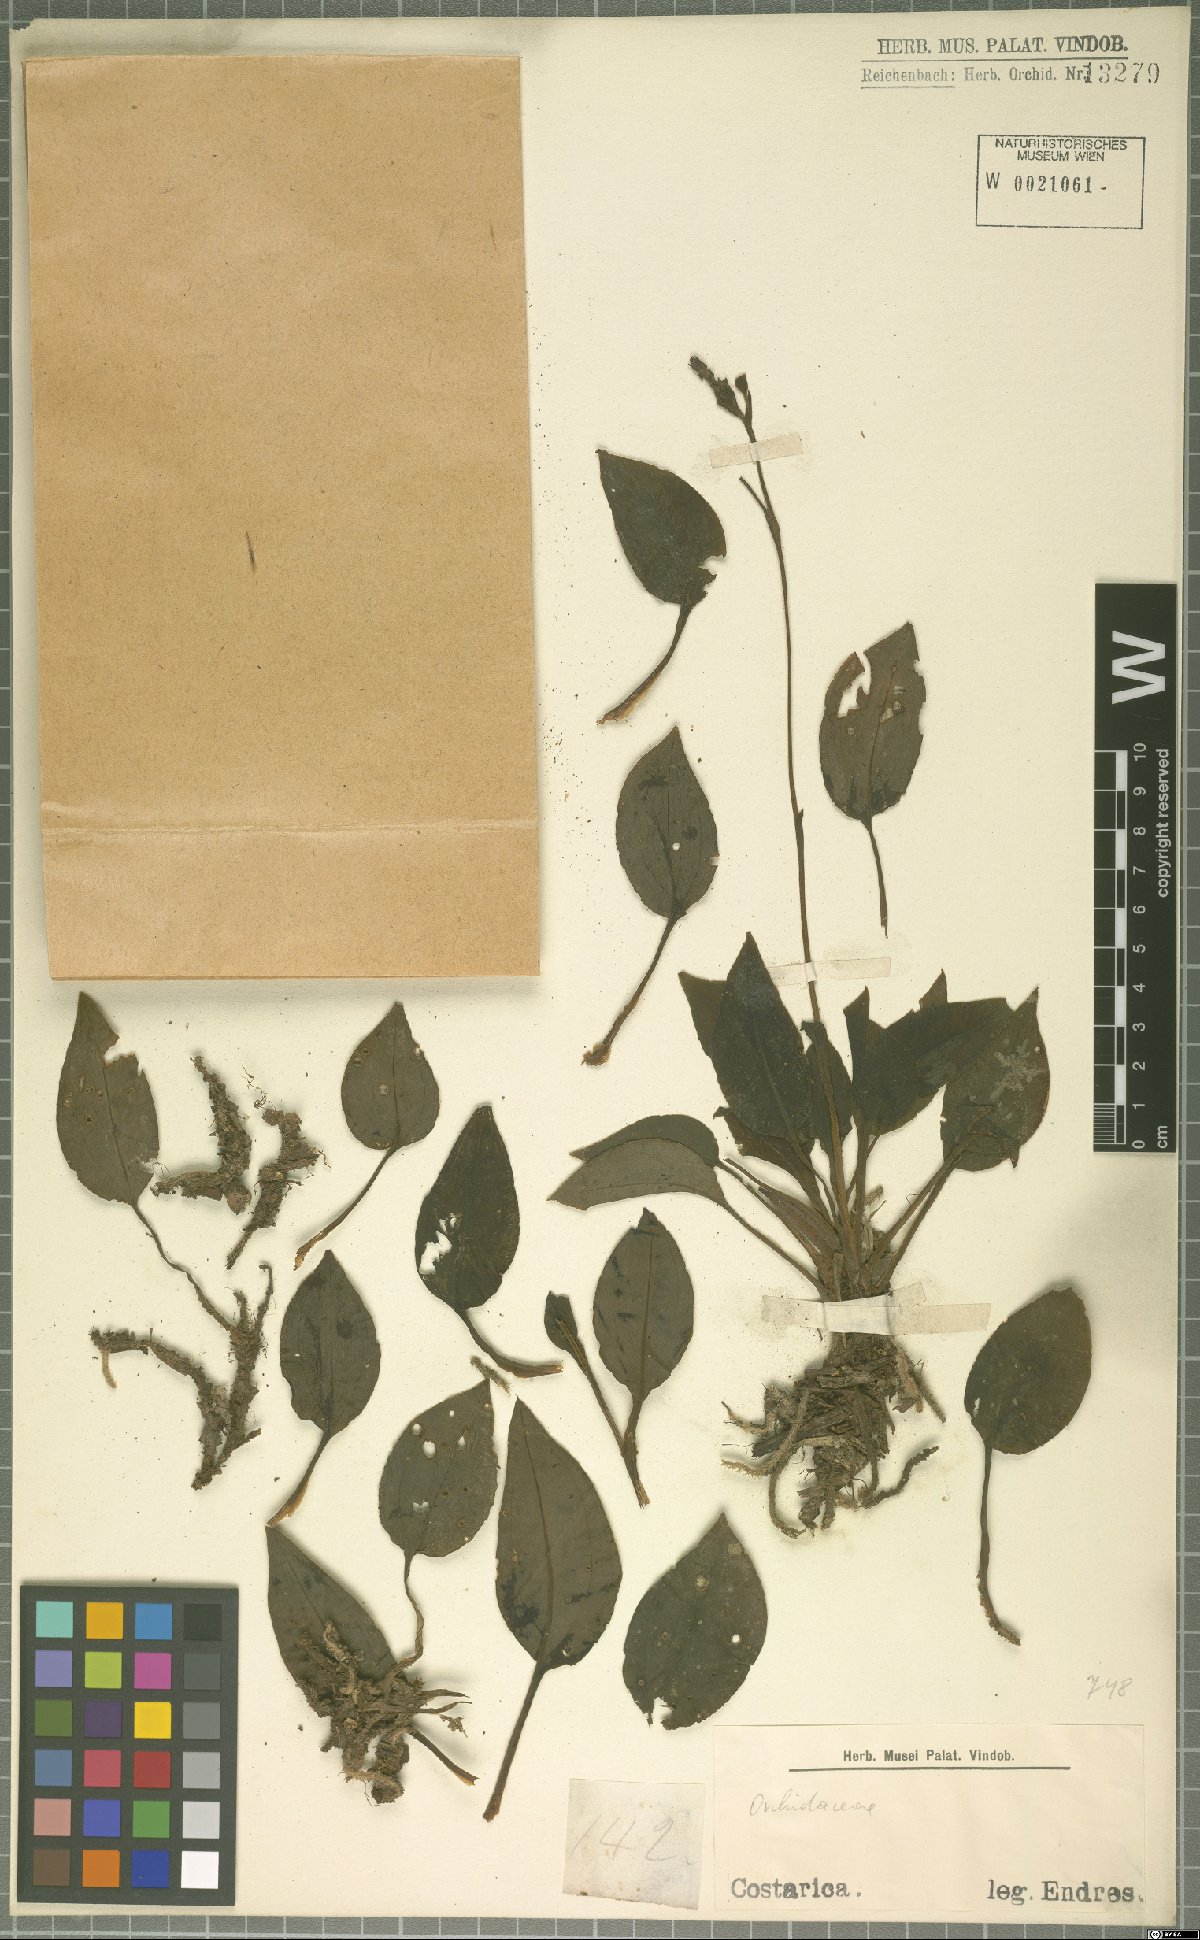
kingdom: Plantae
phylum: Tracheophyta
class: Liliopsida
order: Asparagales
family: Orchidaceae
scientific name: Orchidaceae
